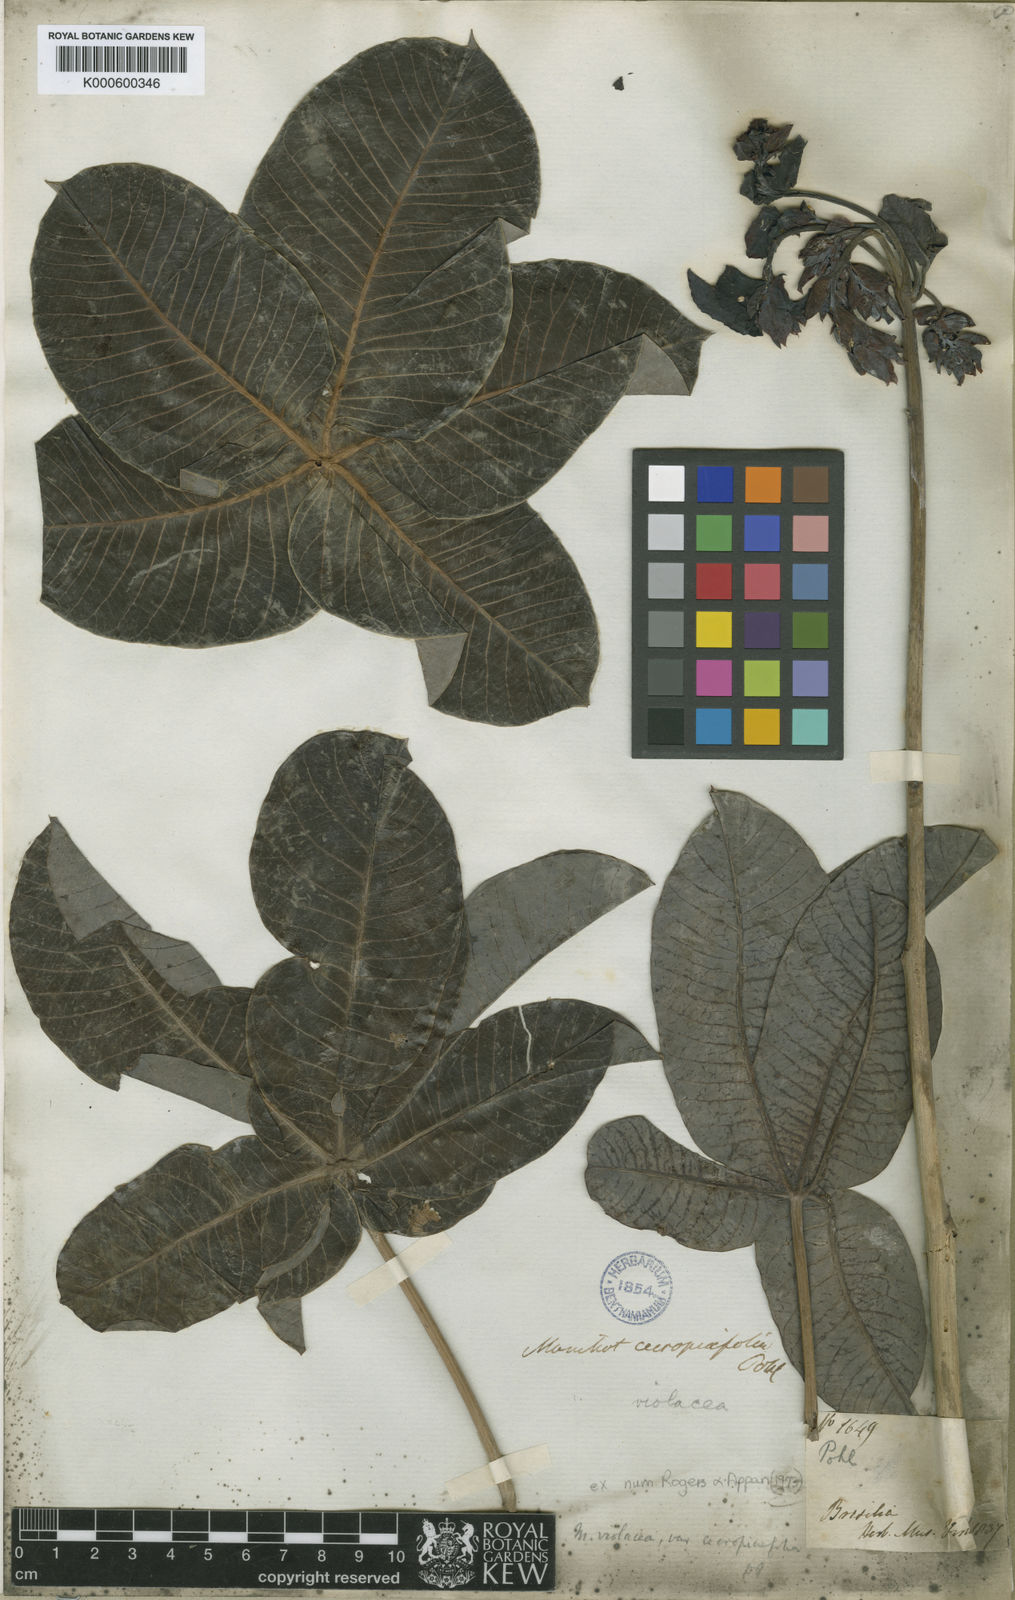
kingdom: Plantae
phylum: Tracheophyta
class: Magnoliopsida
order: Malpighiales
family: Euphorbiaceae
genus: Manihot
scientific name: Manihot cecropiifolia
